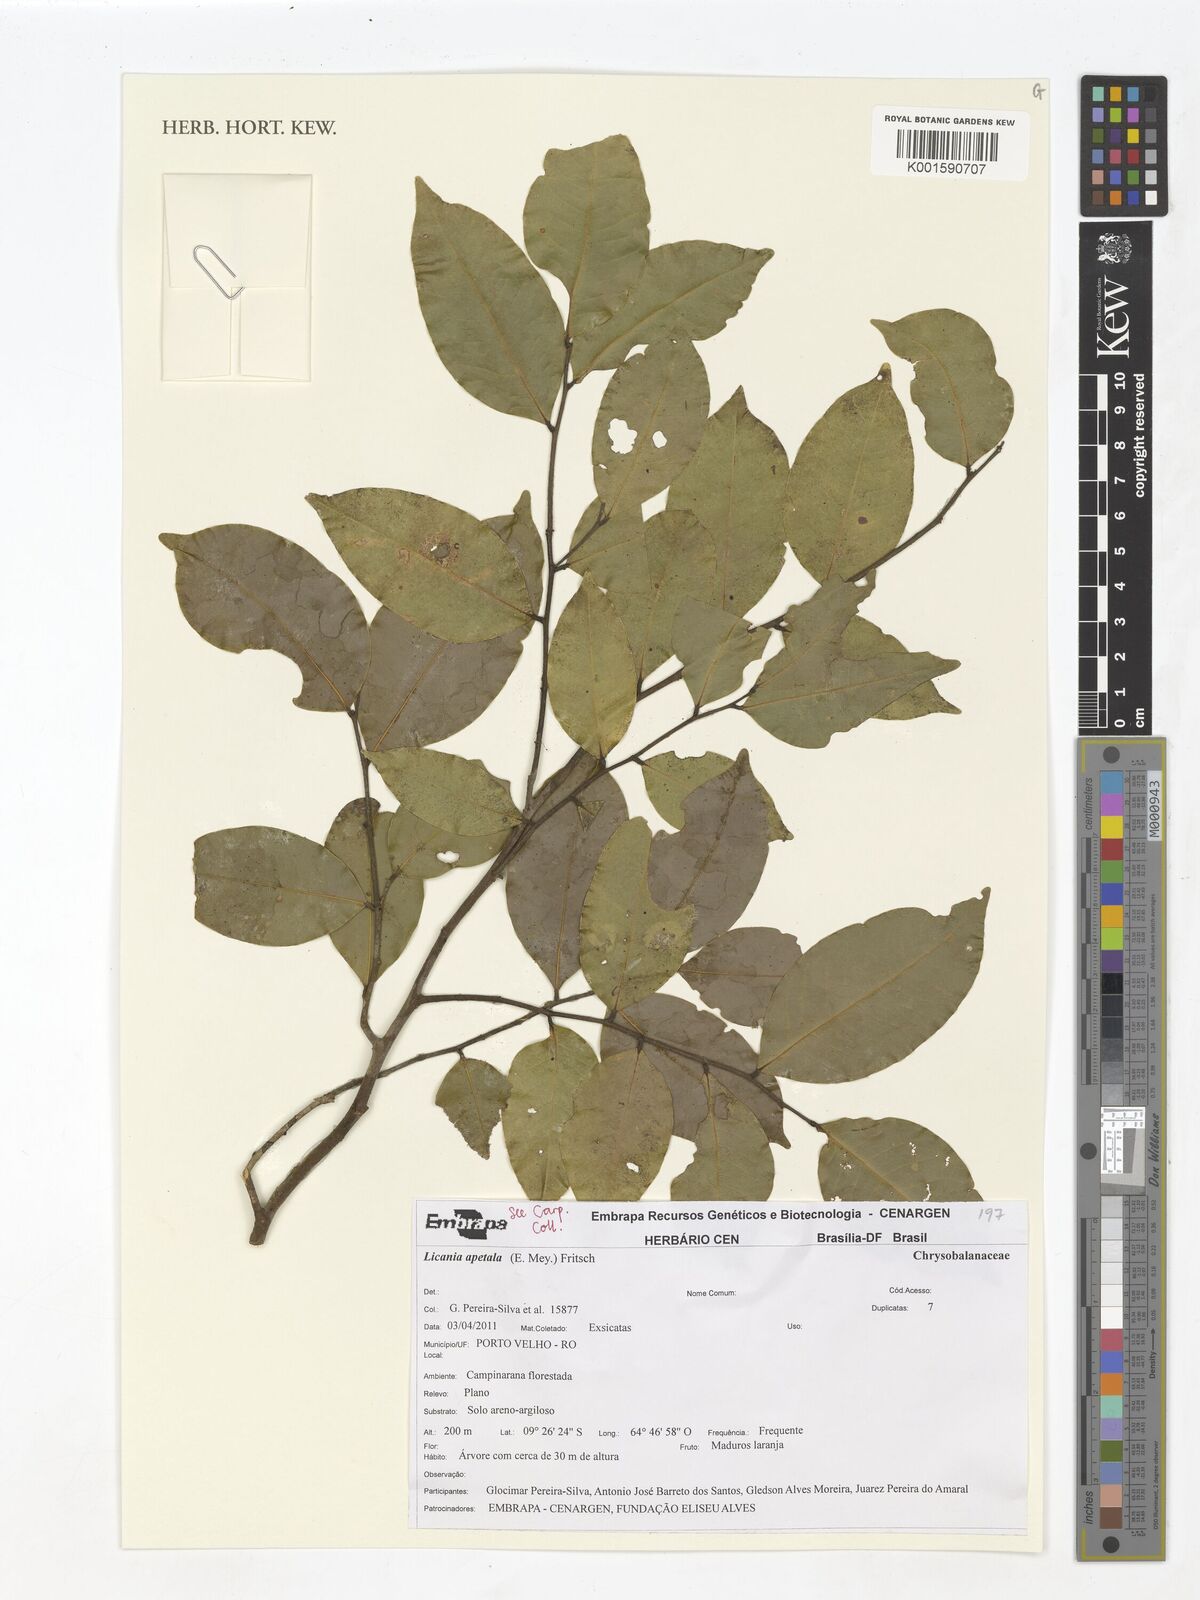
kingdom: Plantae
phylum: Tracheophyta
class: Magnoliopsida
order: Malpighiales
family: Chrysobalanaceae
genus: Leptobalanus
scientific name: Leptobalanus apetalus
